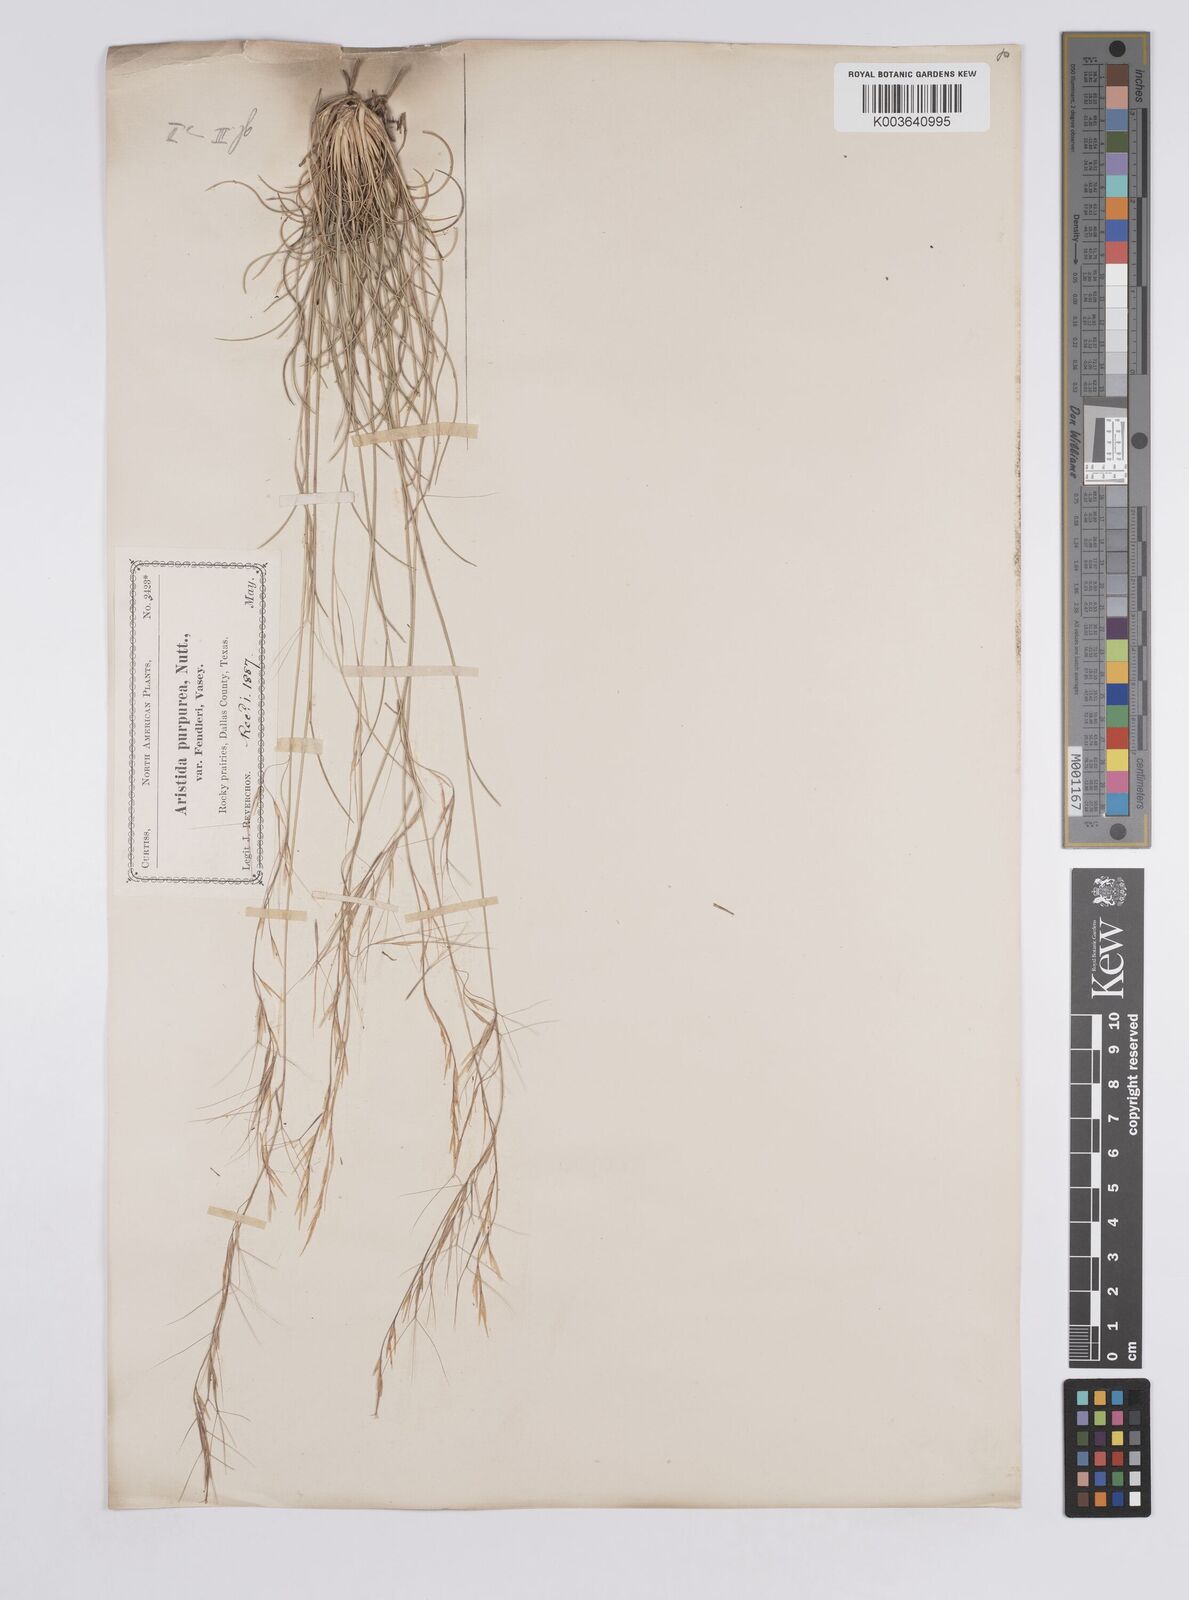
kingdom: Plantae
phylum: Tracheophyta
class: Liliopsida
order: Poales
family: Poaceae
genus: Aristida
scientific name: Aristida purpurea
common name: Purple threeawn
